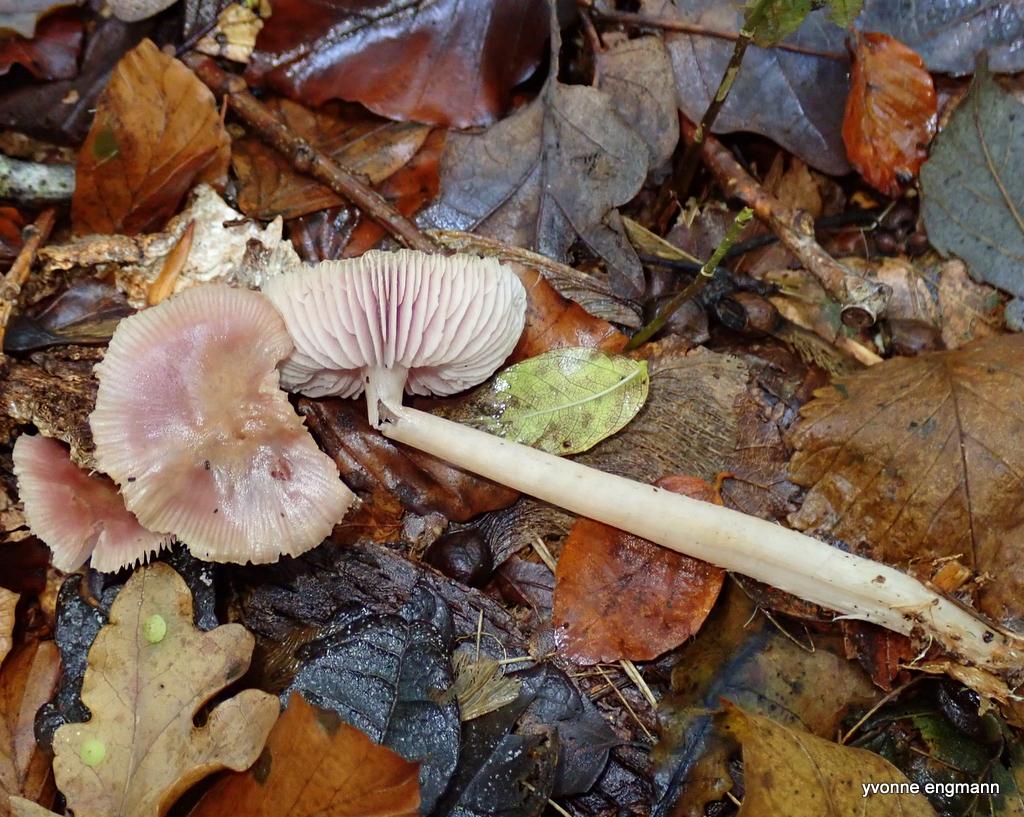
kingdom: Fungi
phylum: Basidiomycota
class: Agaricomycetes
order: Agaricales
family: Mycenaceae
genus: Mycena
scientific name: Mycena rosea
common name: rosa huesvamp
